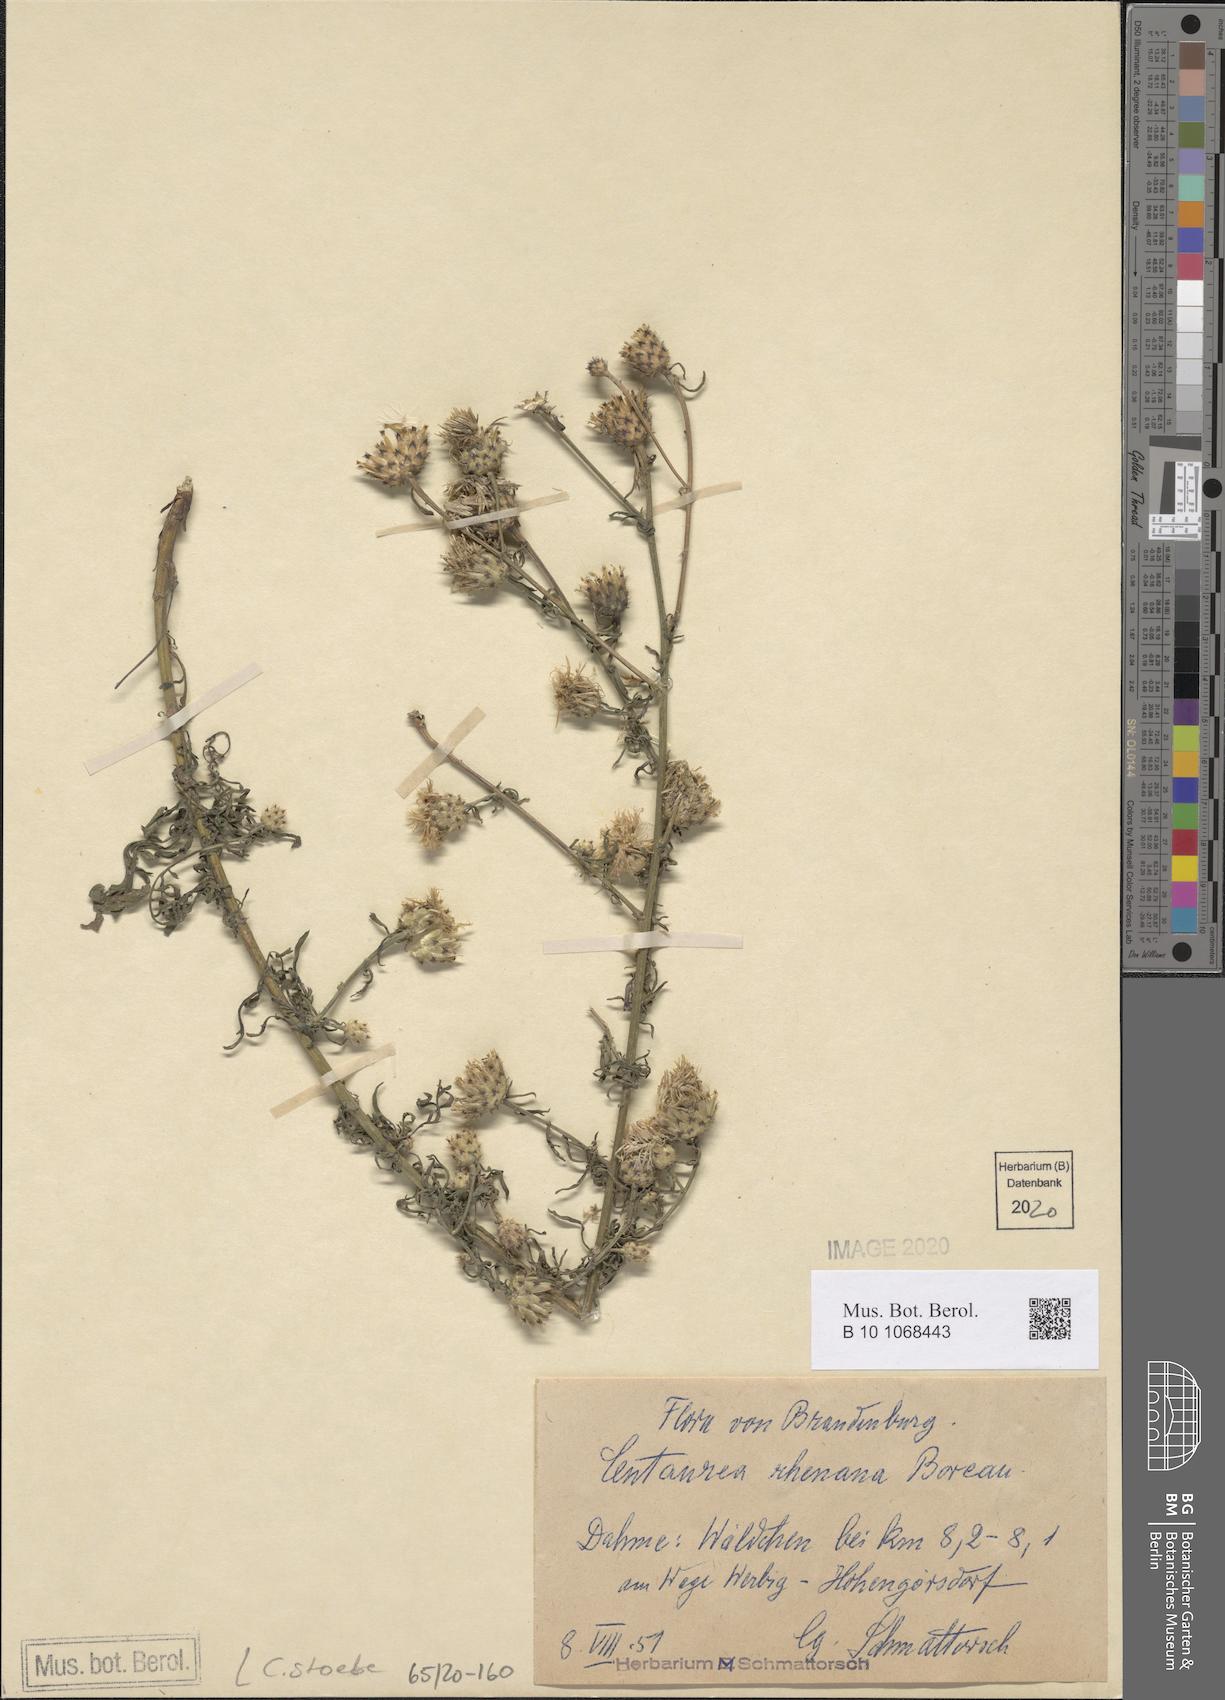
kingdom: Plantae
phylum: Tracheophyta
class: Magnoliopsida
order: Asterales
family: Asteraceae
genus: Centaurea
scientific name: Centaurea stoebe
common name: Spotted knapweed
